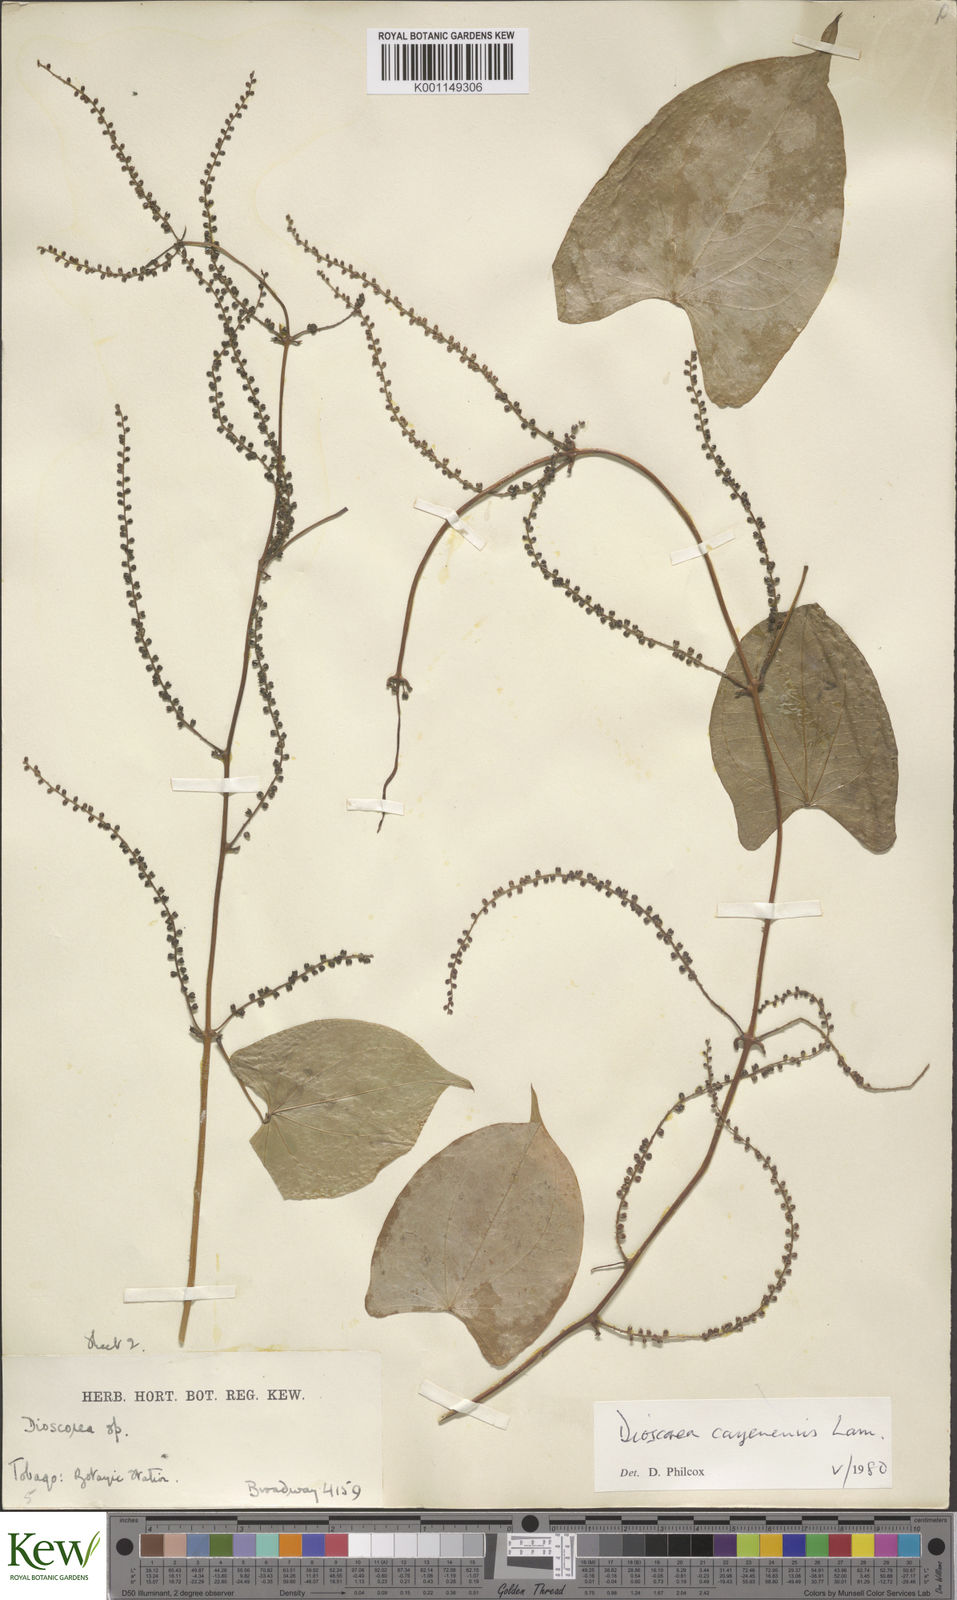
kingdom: Plantae
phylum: Tracheophyta
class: Liliopsida
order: Dioscoreales
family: Dioscoreaceae
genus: Dioscorea
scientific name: Dioscorea cayenensis
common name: Attoto yam
